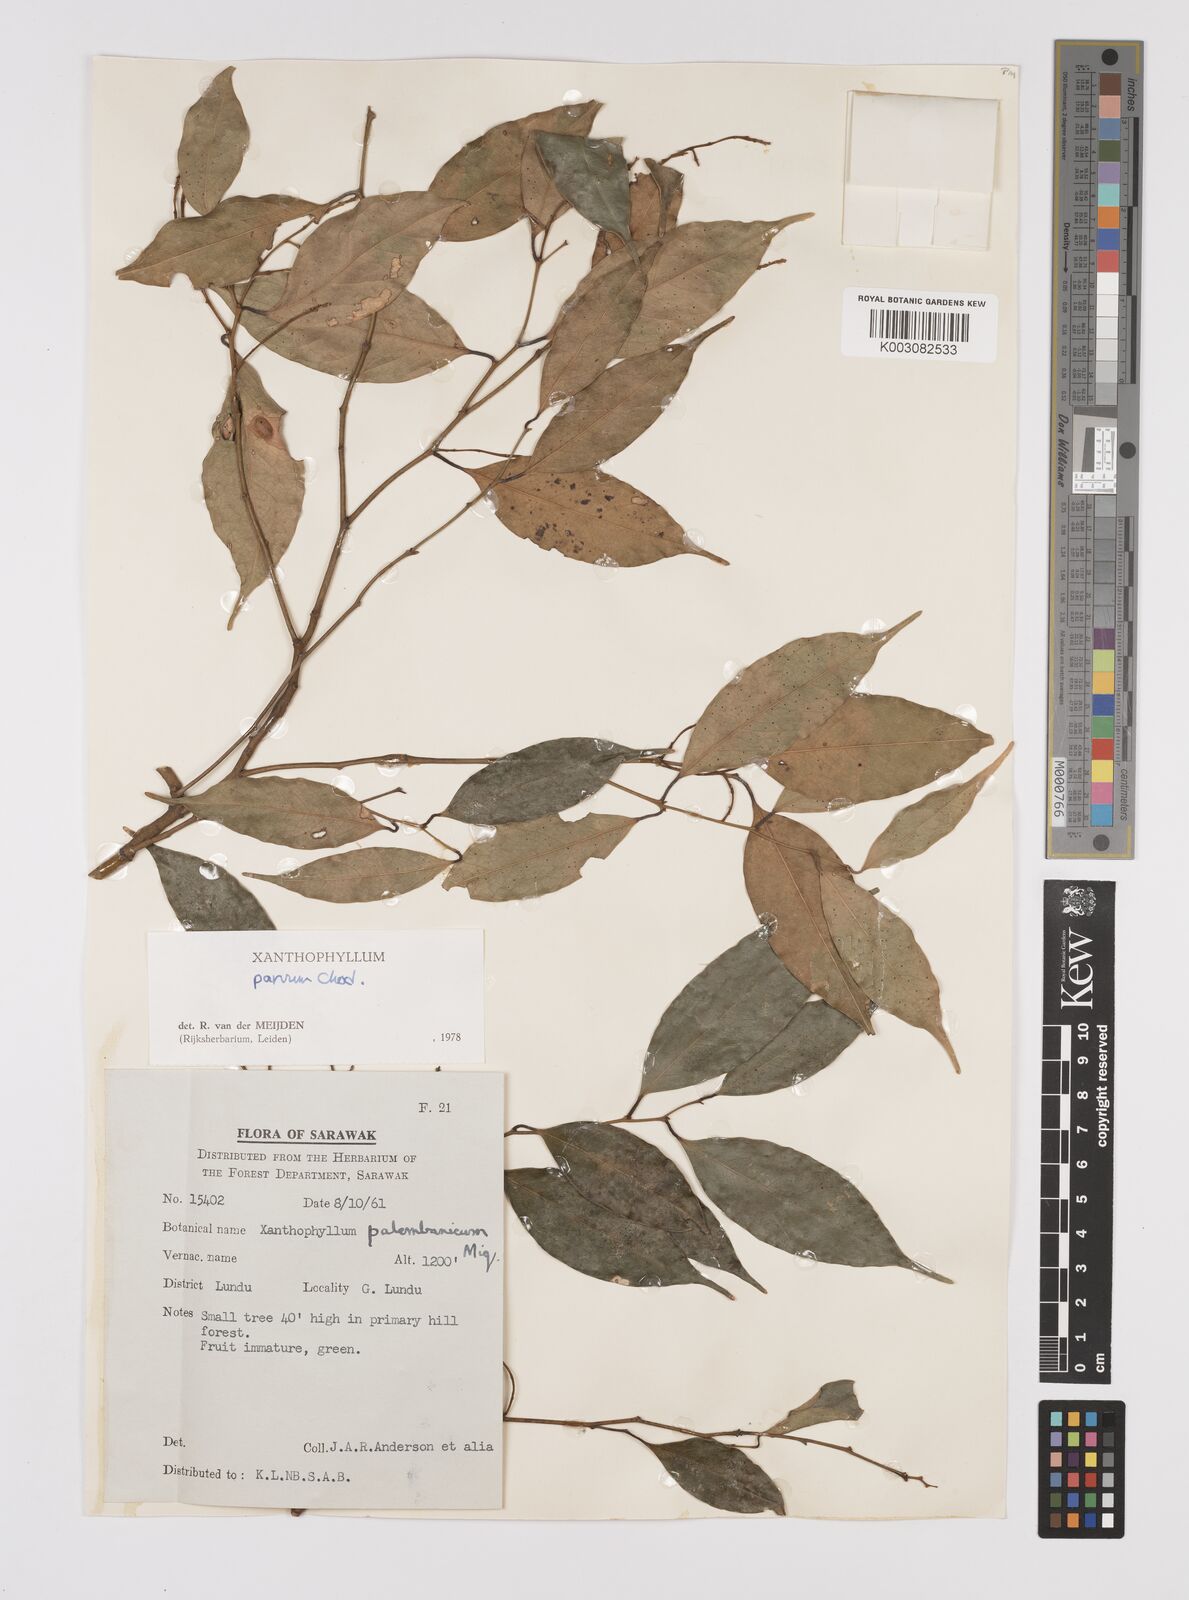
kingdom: Plantae
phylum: Tracheophyta
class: Magnoliopsida
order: Fabales
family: Polygalaceae
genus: Xanthophyllum
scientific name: Xanthophyllum griffithii
